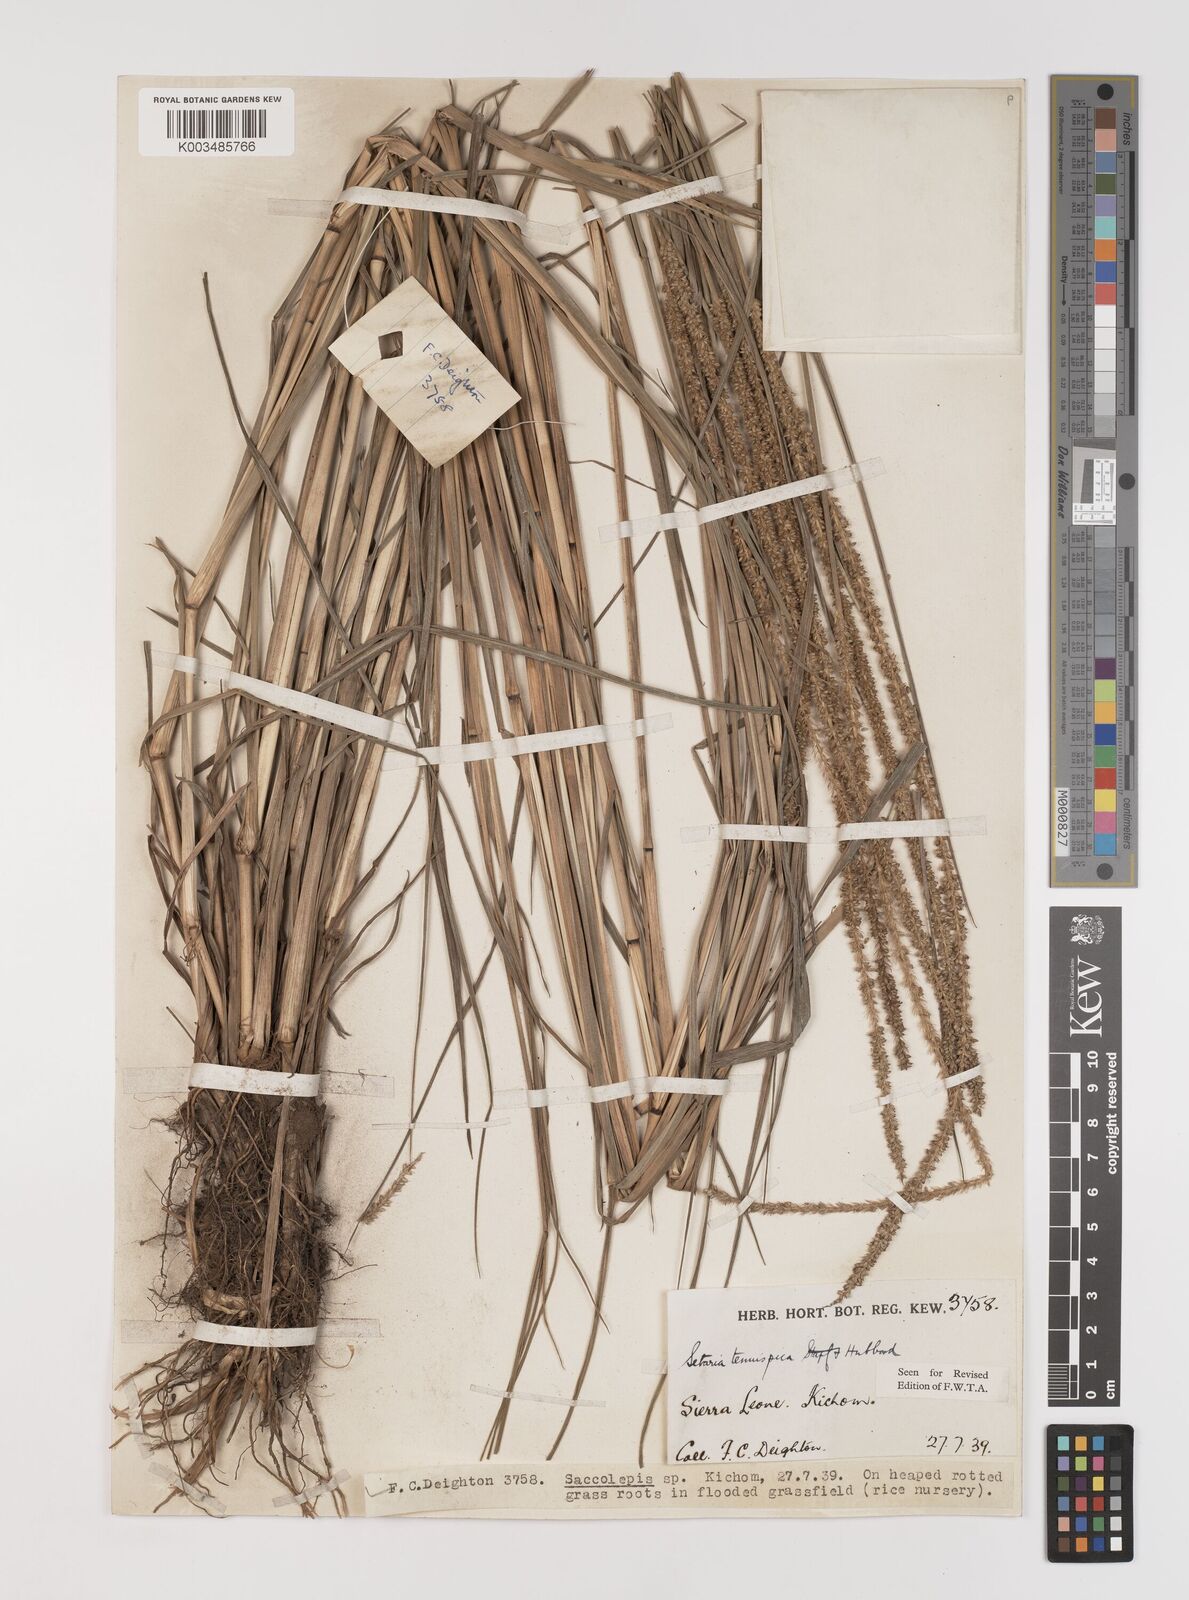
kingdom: Plantae
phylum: Tracheophyta
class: Liliopsida
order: Poales
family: Poaceae
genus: Setaria
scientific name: Setaria sphacelata
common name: African bristlegrass
